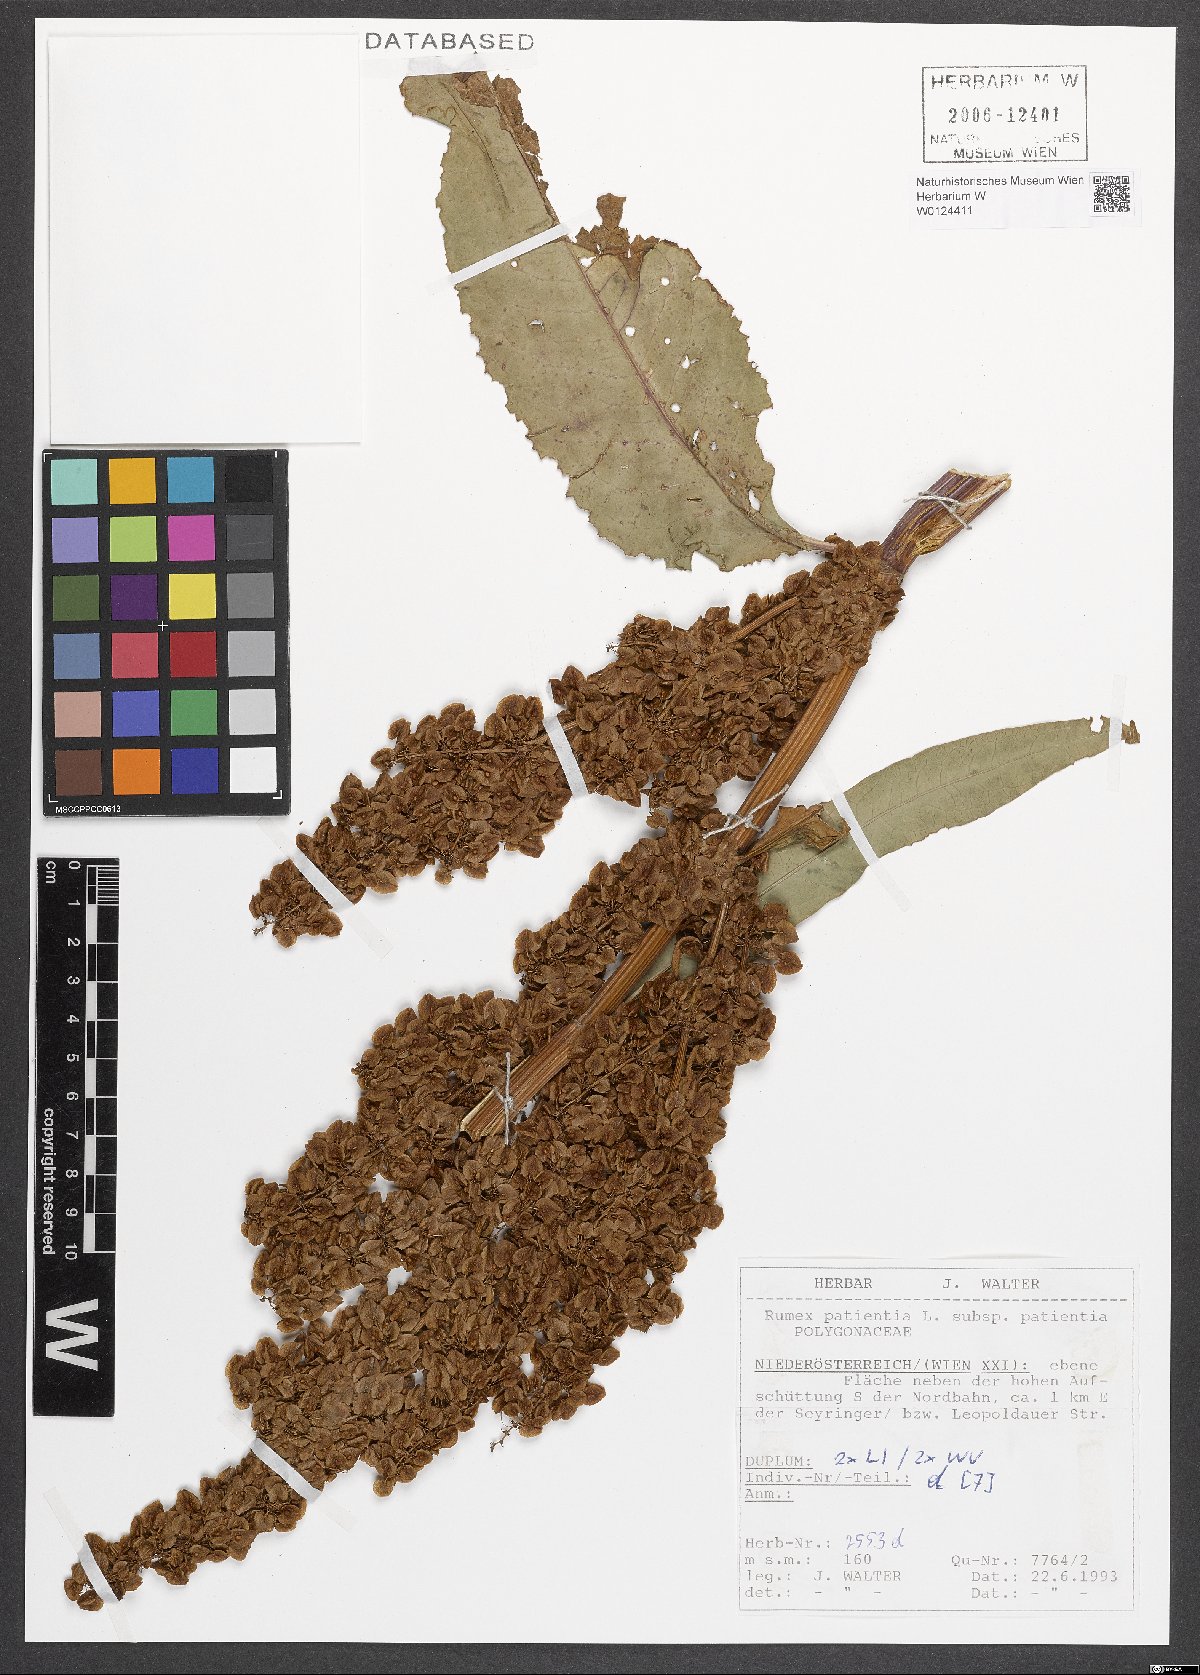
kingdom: Plantae
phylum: Tracheophyta
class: Magnoliopsida
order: Caryophyllales
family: Polygonaceae
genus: Rumex
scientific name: Rumex patientia
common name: Patience dock
